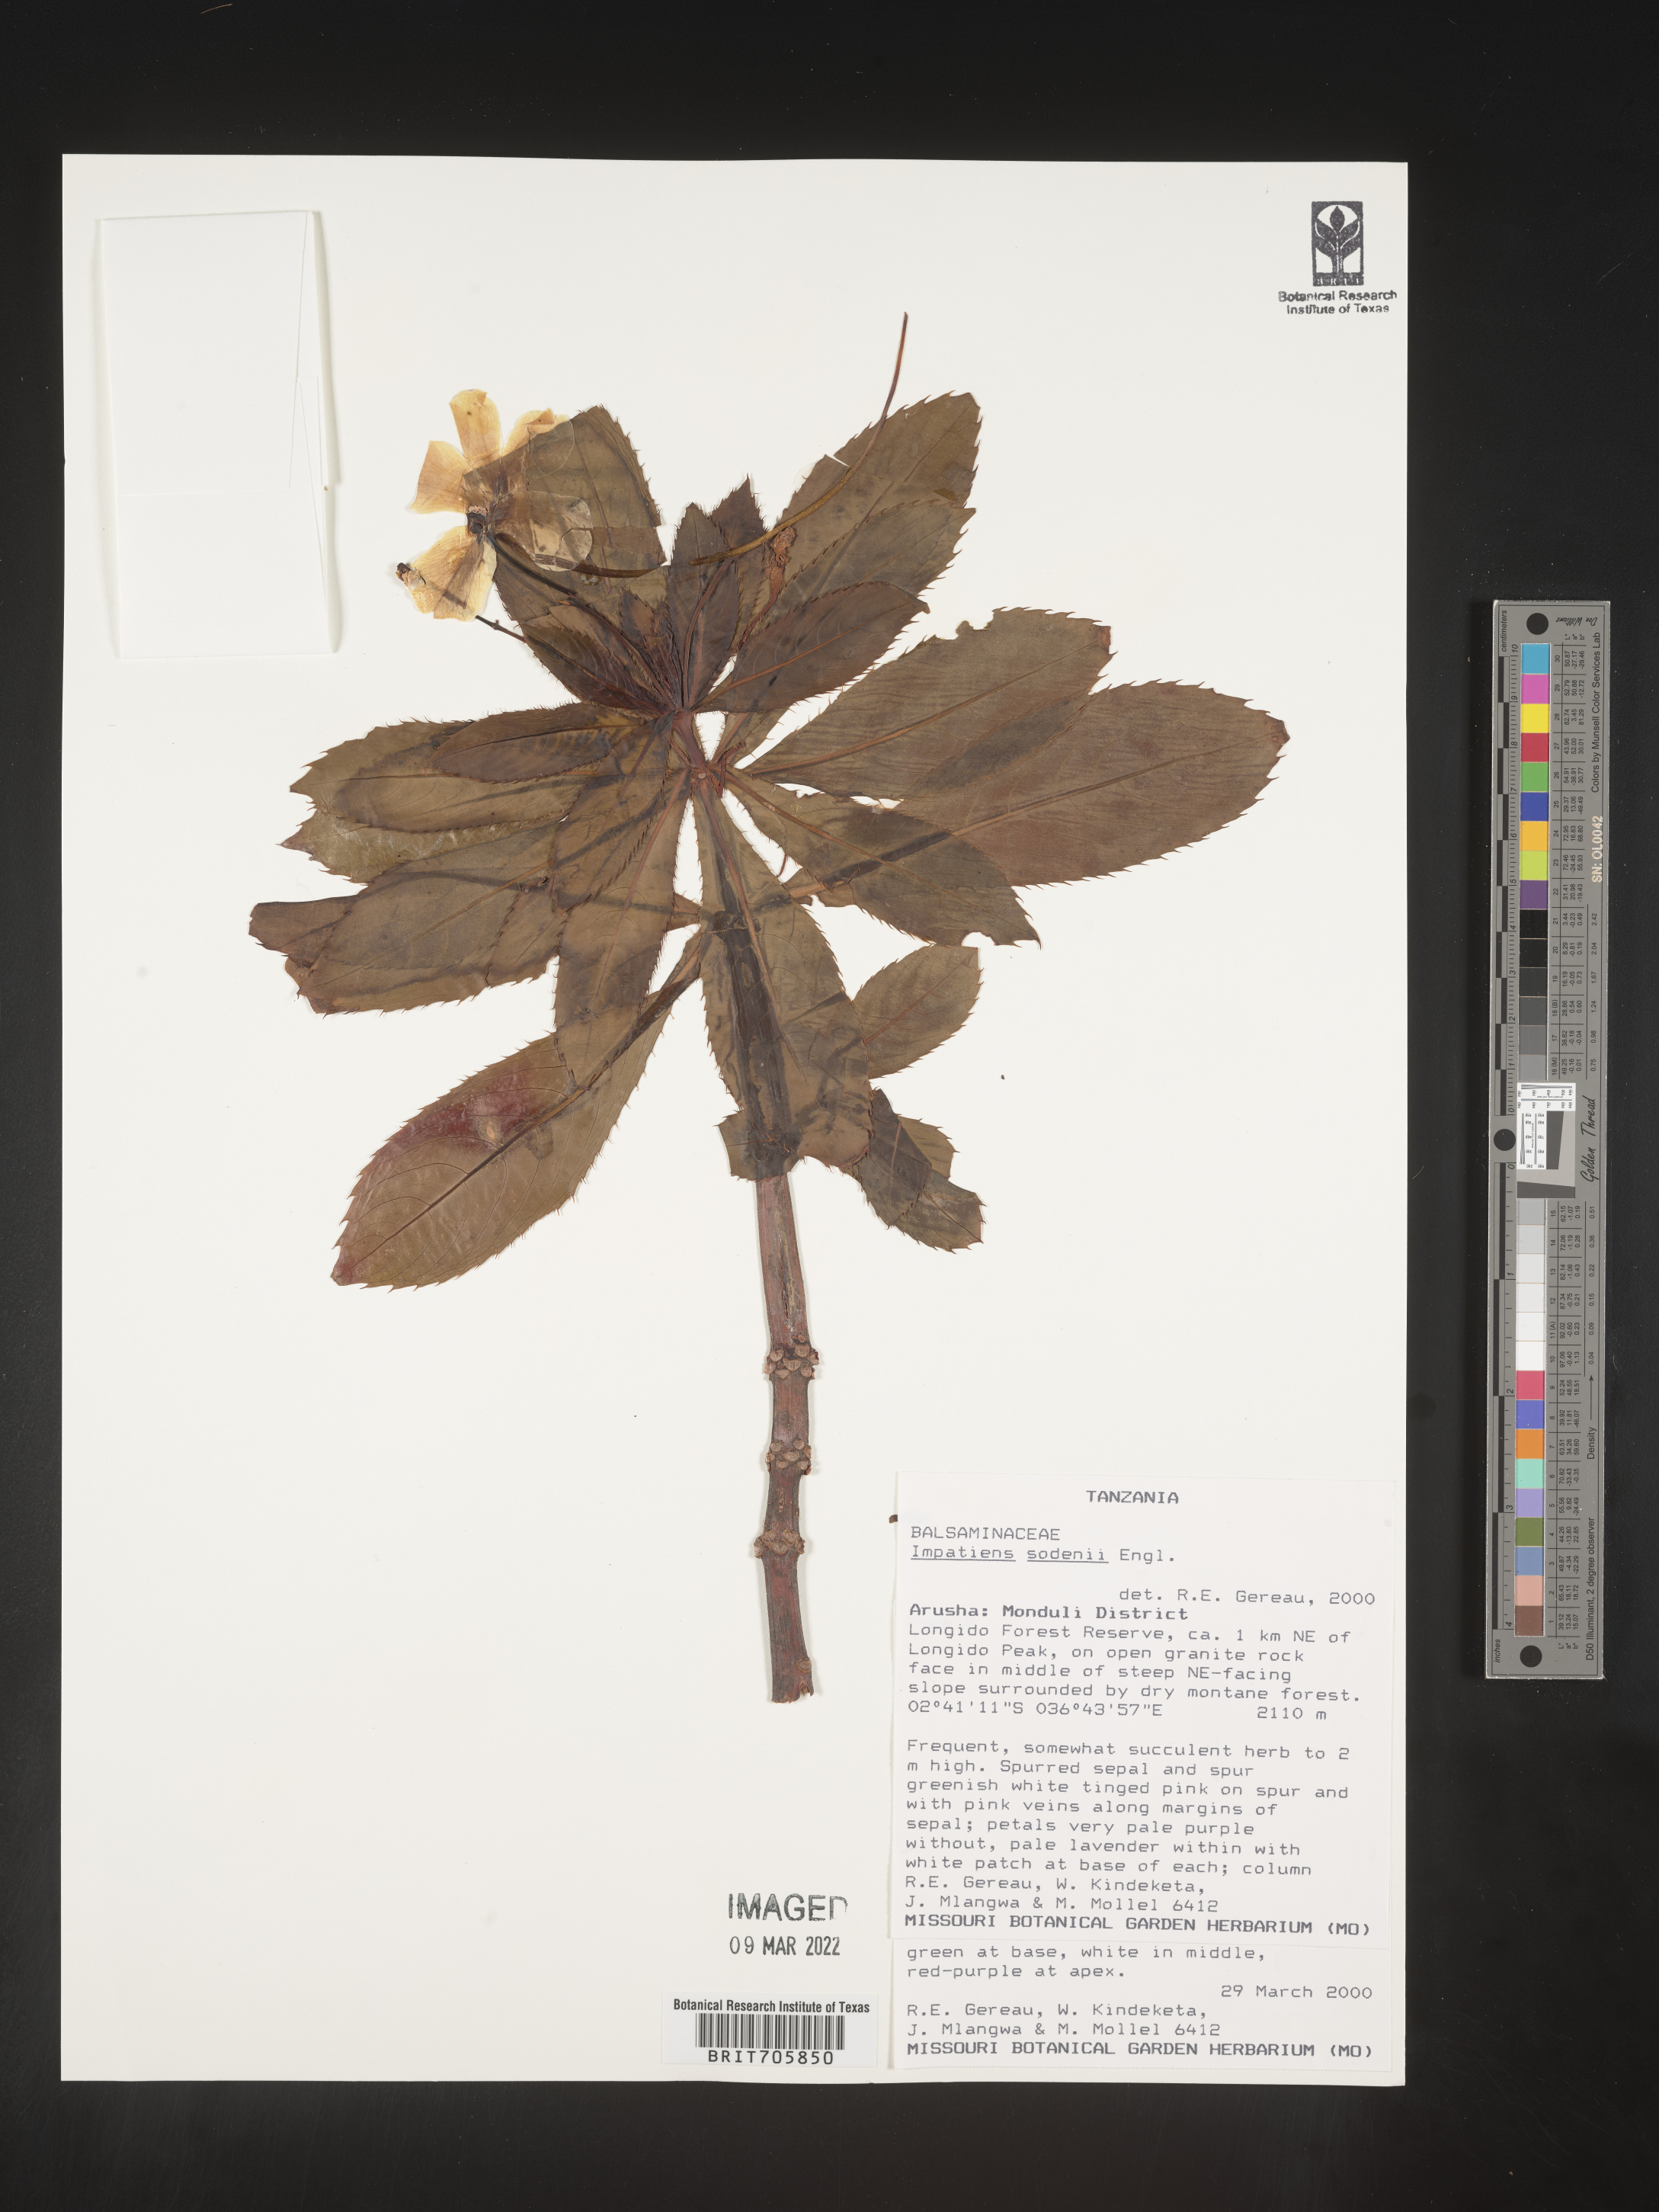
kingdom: Plantae
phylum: Tracheophyta
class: Magnoliopsida
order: Ericales
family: Balsaminaceae
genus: Impatiens
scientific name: Impatiens
